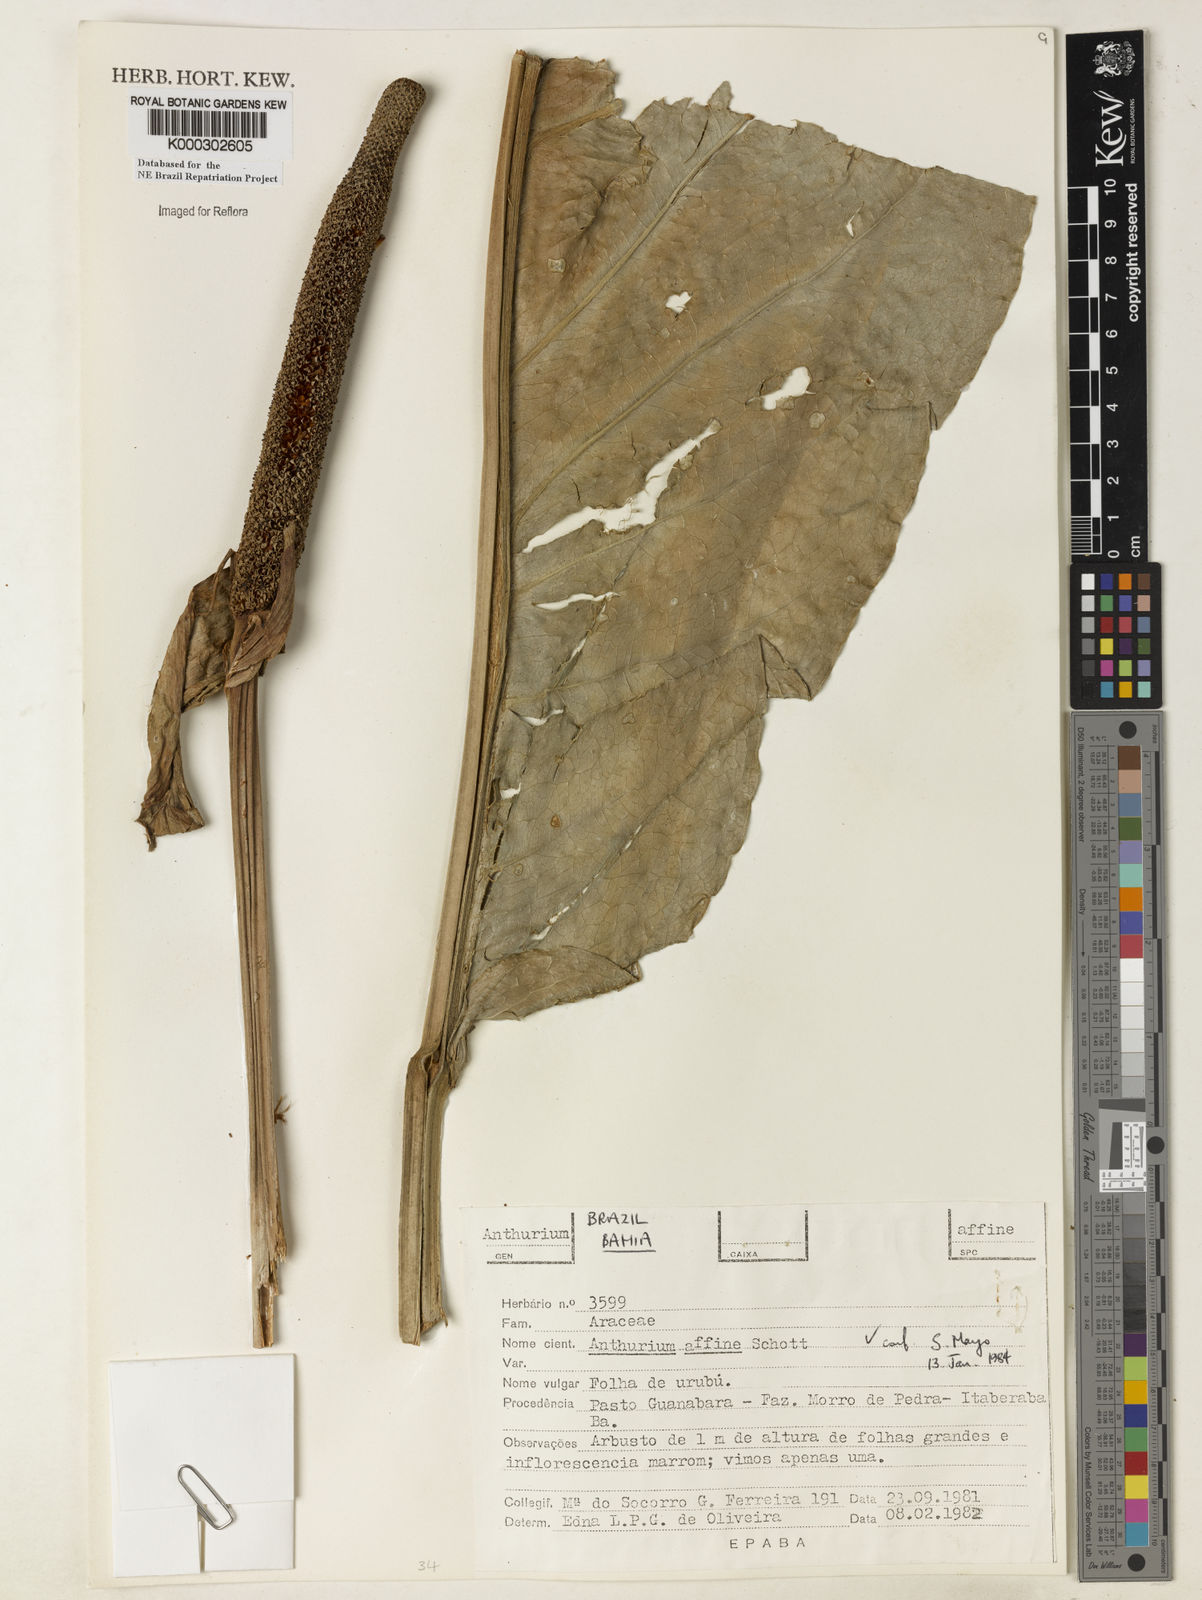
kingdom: Plantae
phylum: Tracheophyta
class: Liliopsida
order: Alismatales
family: Araceae
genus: Anthurium
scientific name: Anthurium affine
